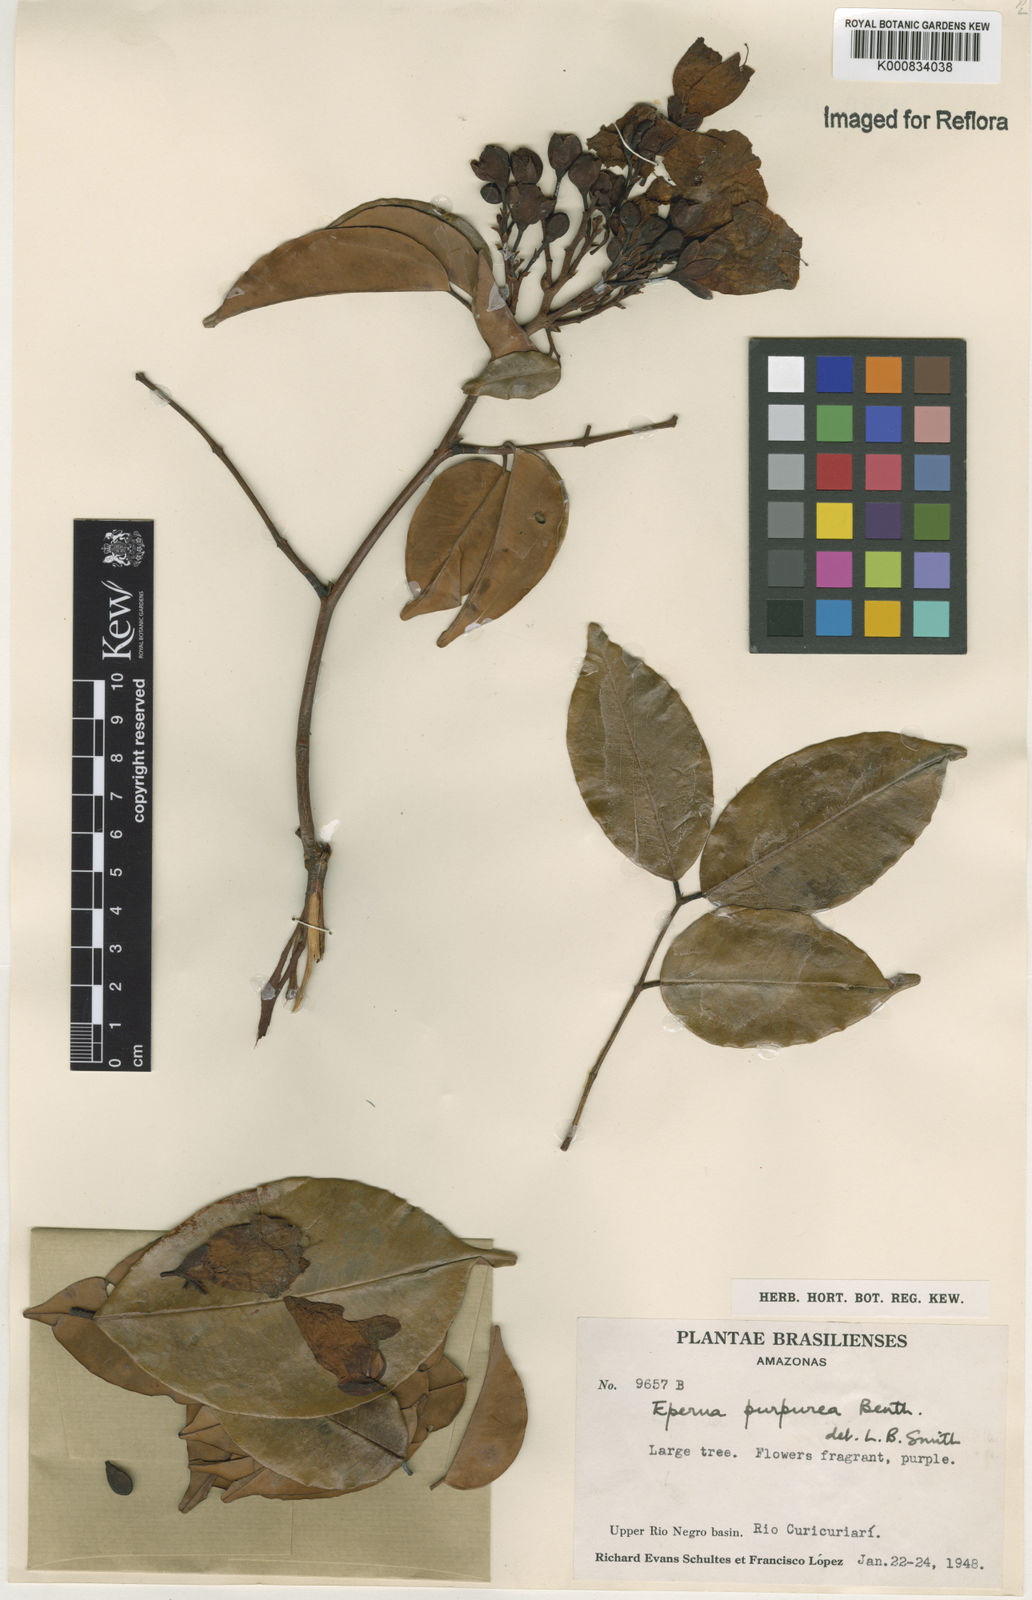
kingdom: Plantae
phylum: Tracheophyta
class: Magnoliopsida
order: Fabales
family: Fabaceae
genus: Eperua
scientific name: Eperua purpurea
